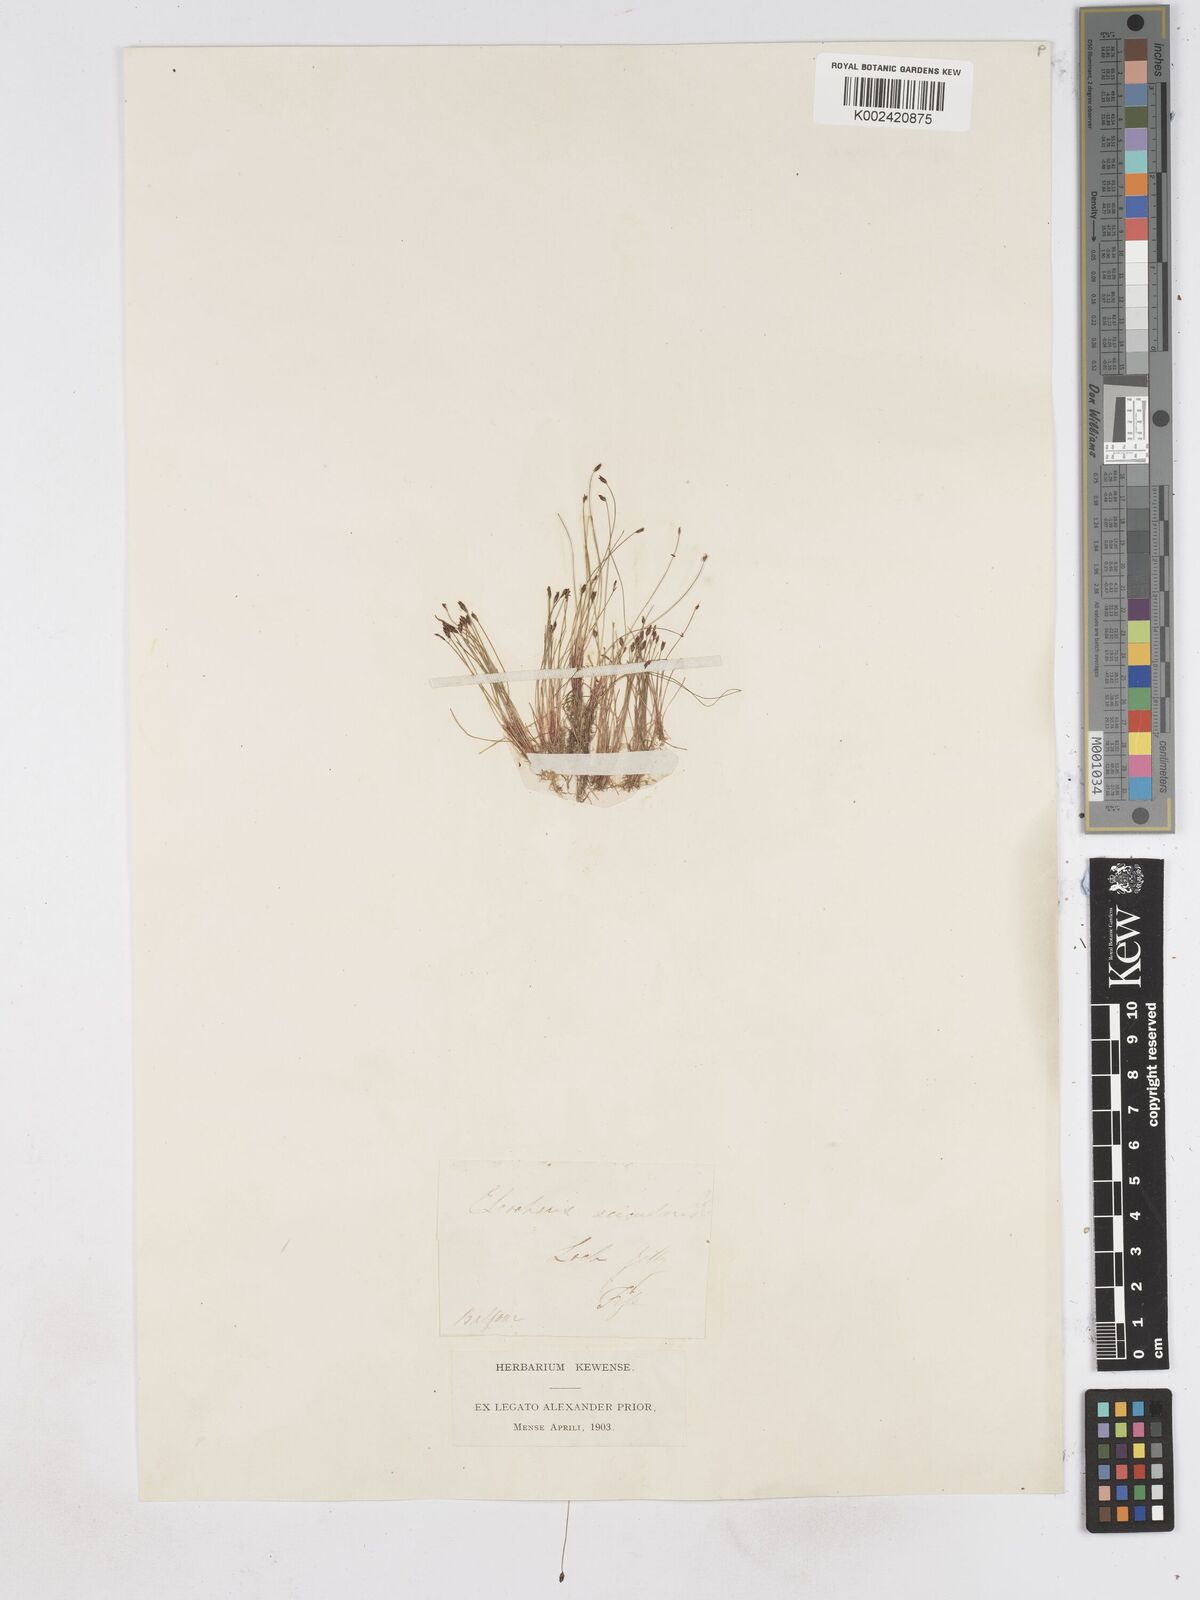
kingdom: Plantae
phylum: Tracheophyta
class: Liliopsida
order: Poales
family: Cyperaceae
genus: Eleocharis
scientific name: Eleocharis acicularis
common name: Needle spike-rush
